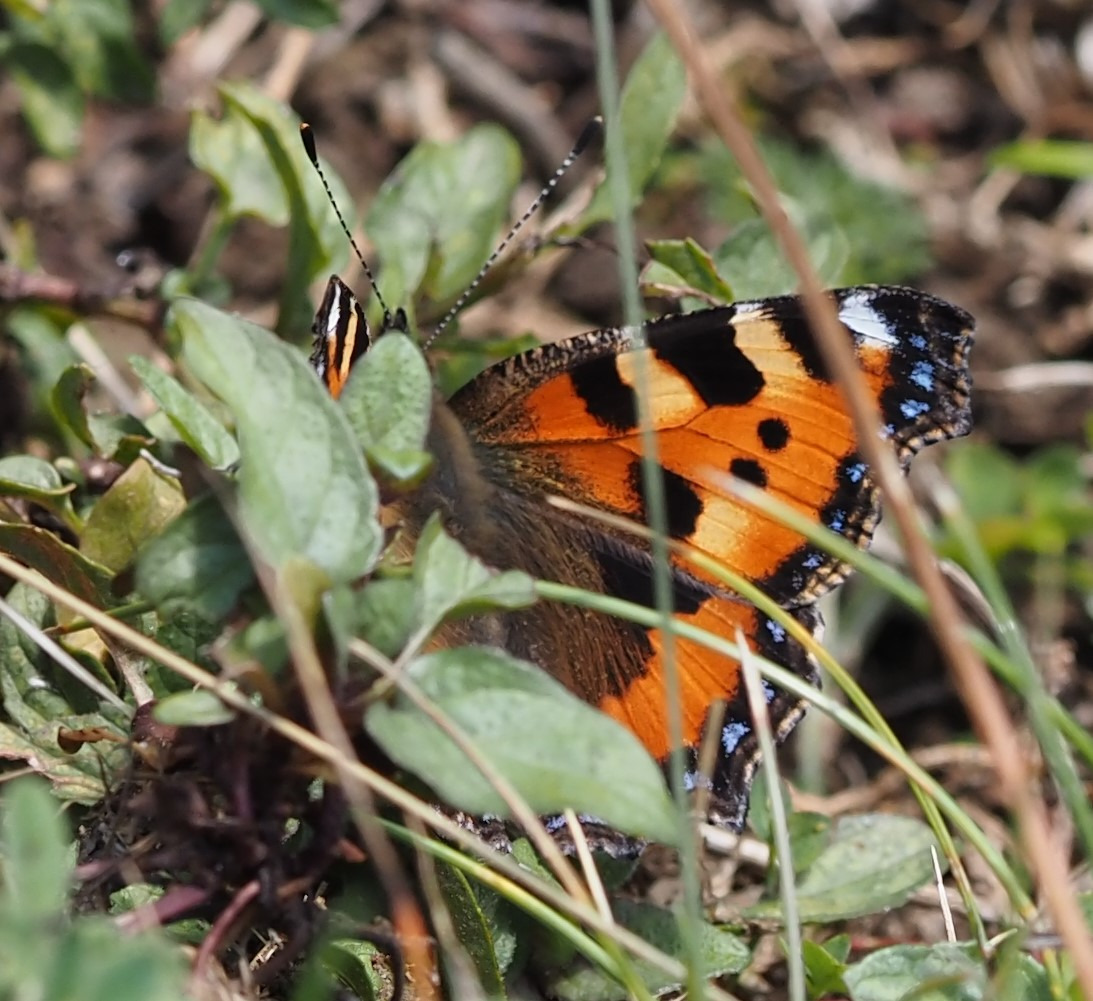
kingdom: Animalia
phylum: Arthropoda
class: Insecta
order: Lepidoptera
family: Nymphalidae
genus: Aglais
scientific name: Aglais urticae
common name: Nældens takvinge
